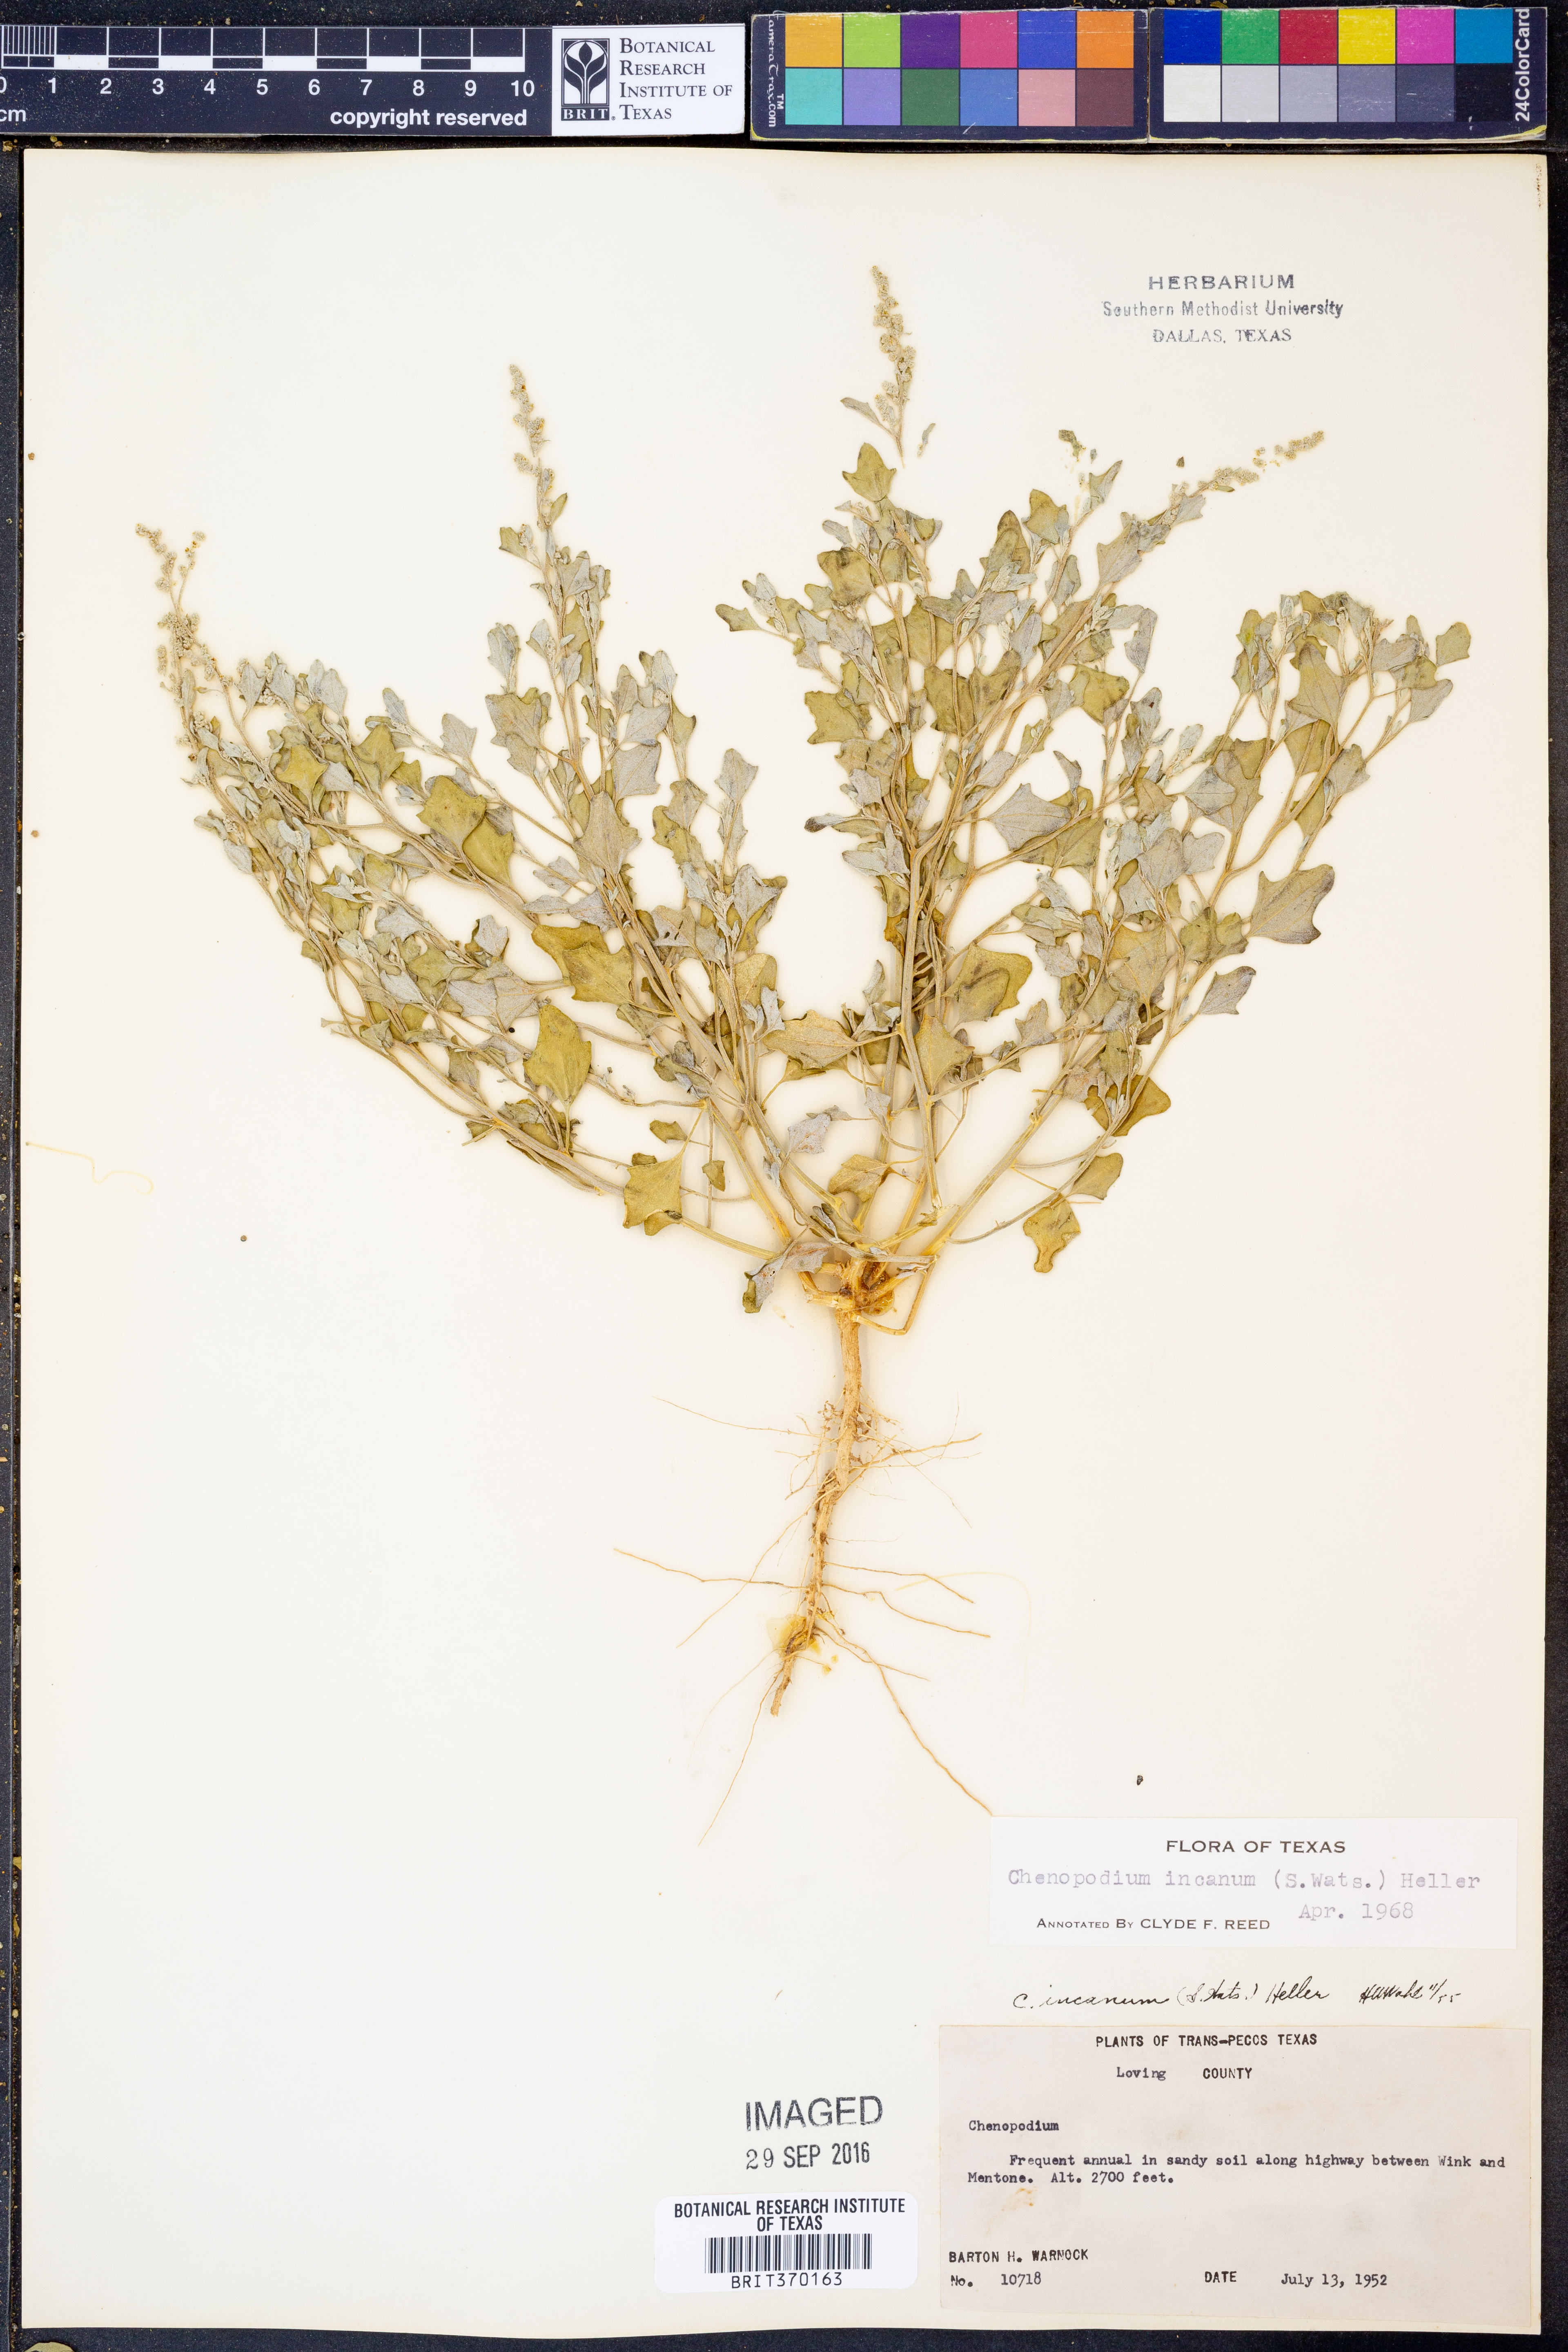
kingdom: Plantae
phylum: Tracheophyta
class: Magnoliopsida
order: Caryophyllales
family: Amaranthaceae
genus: Chenopodium
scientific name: Chenopodium incanum
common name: Hoary goosefoot
